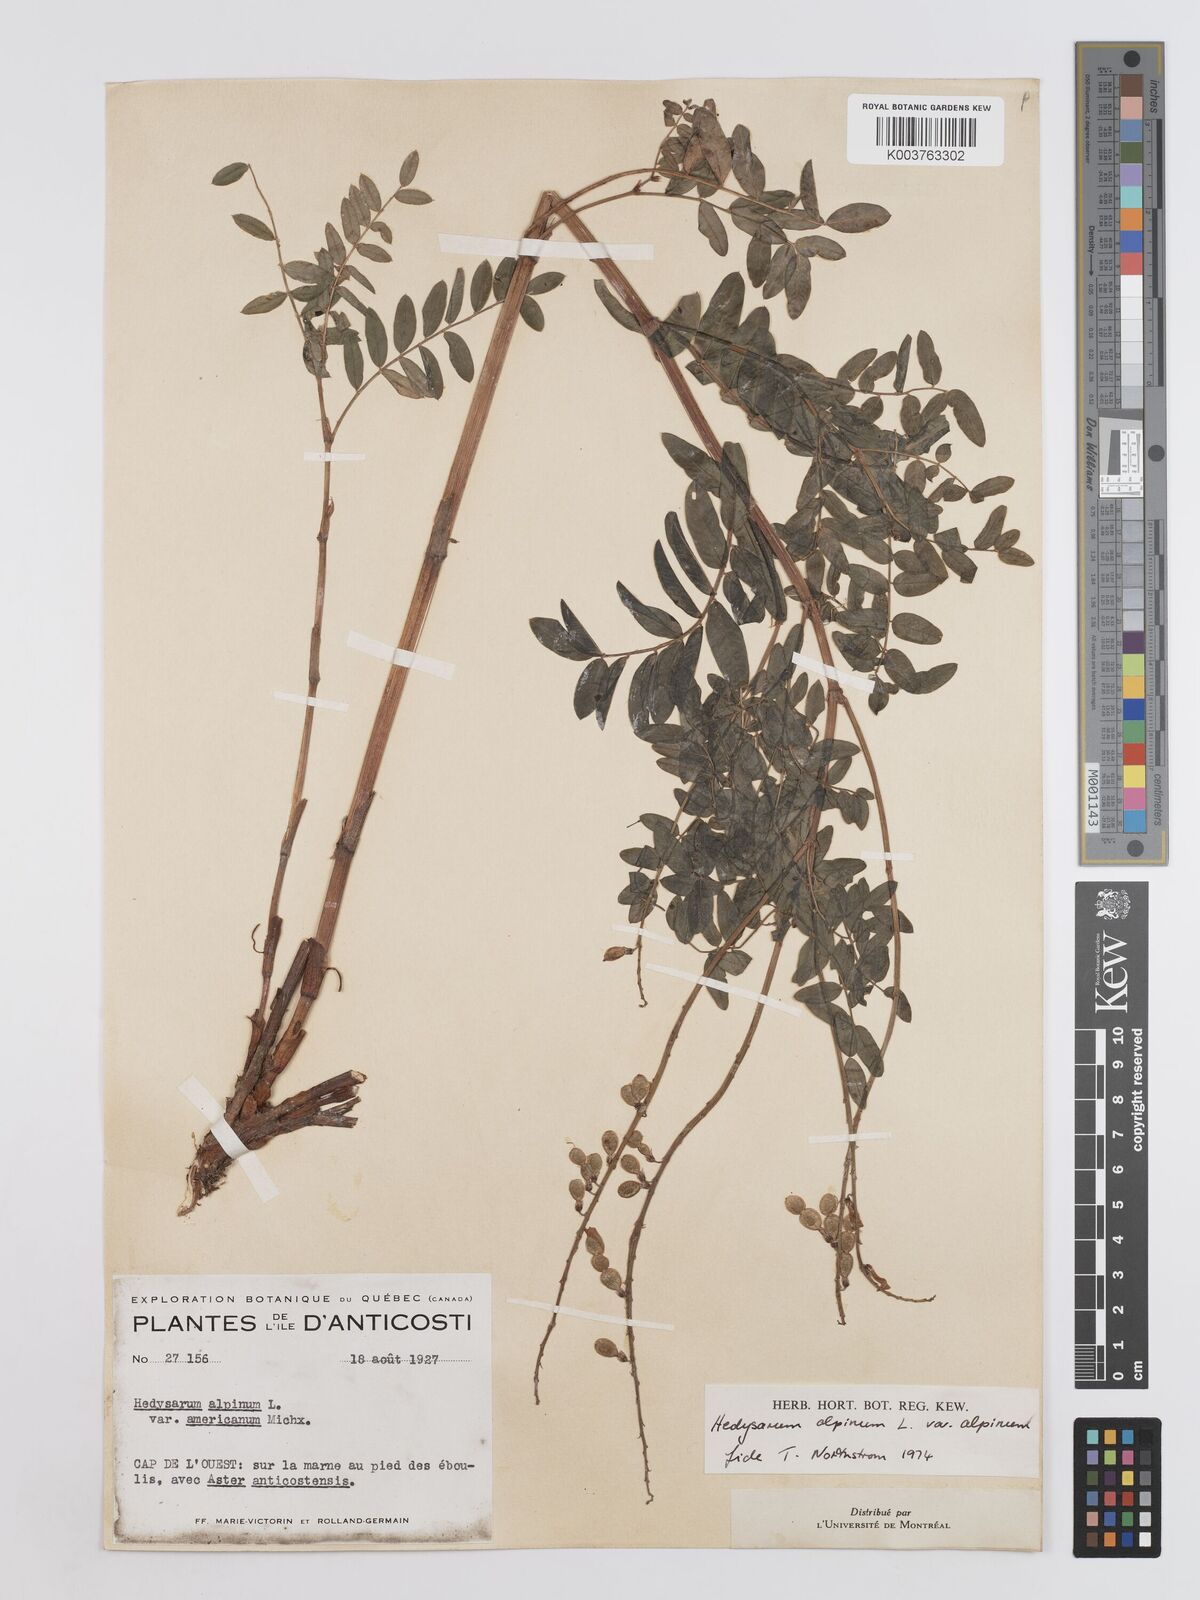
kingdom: Plantae
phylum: Tracheophyta
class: Magnoliopsida
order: Fabales
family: Fabaceae
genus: Hedysarum
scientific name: Hedysarum alpinum
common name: Alpine sweet-vetch
